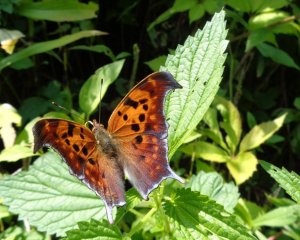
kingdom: Animalia
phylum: Arthropoda
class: Insecta
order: Lepidoptera
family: Nymphalidae
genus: Polygonia
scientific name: Polygonia interrogationis
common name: Question Mark
